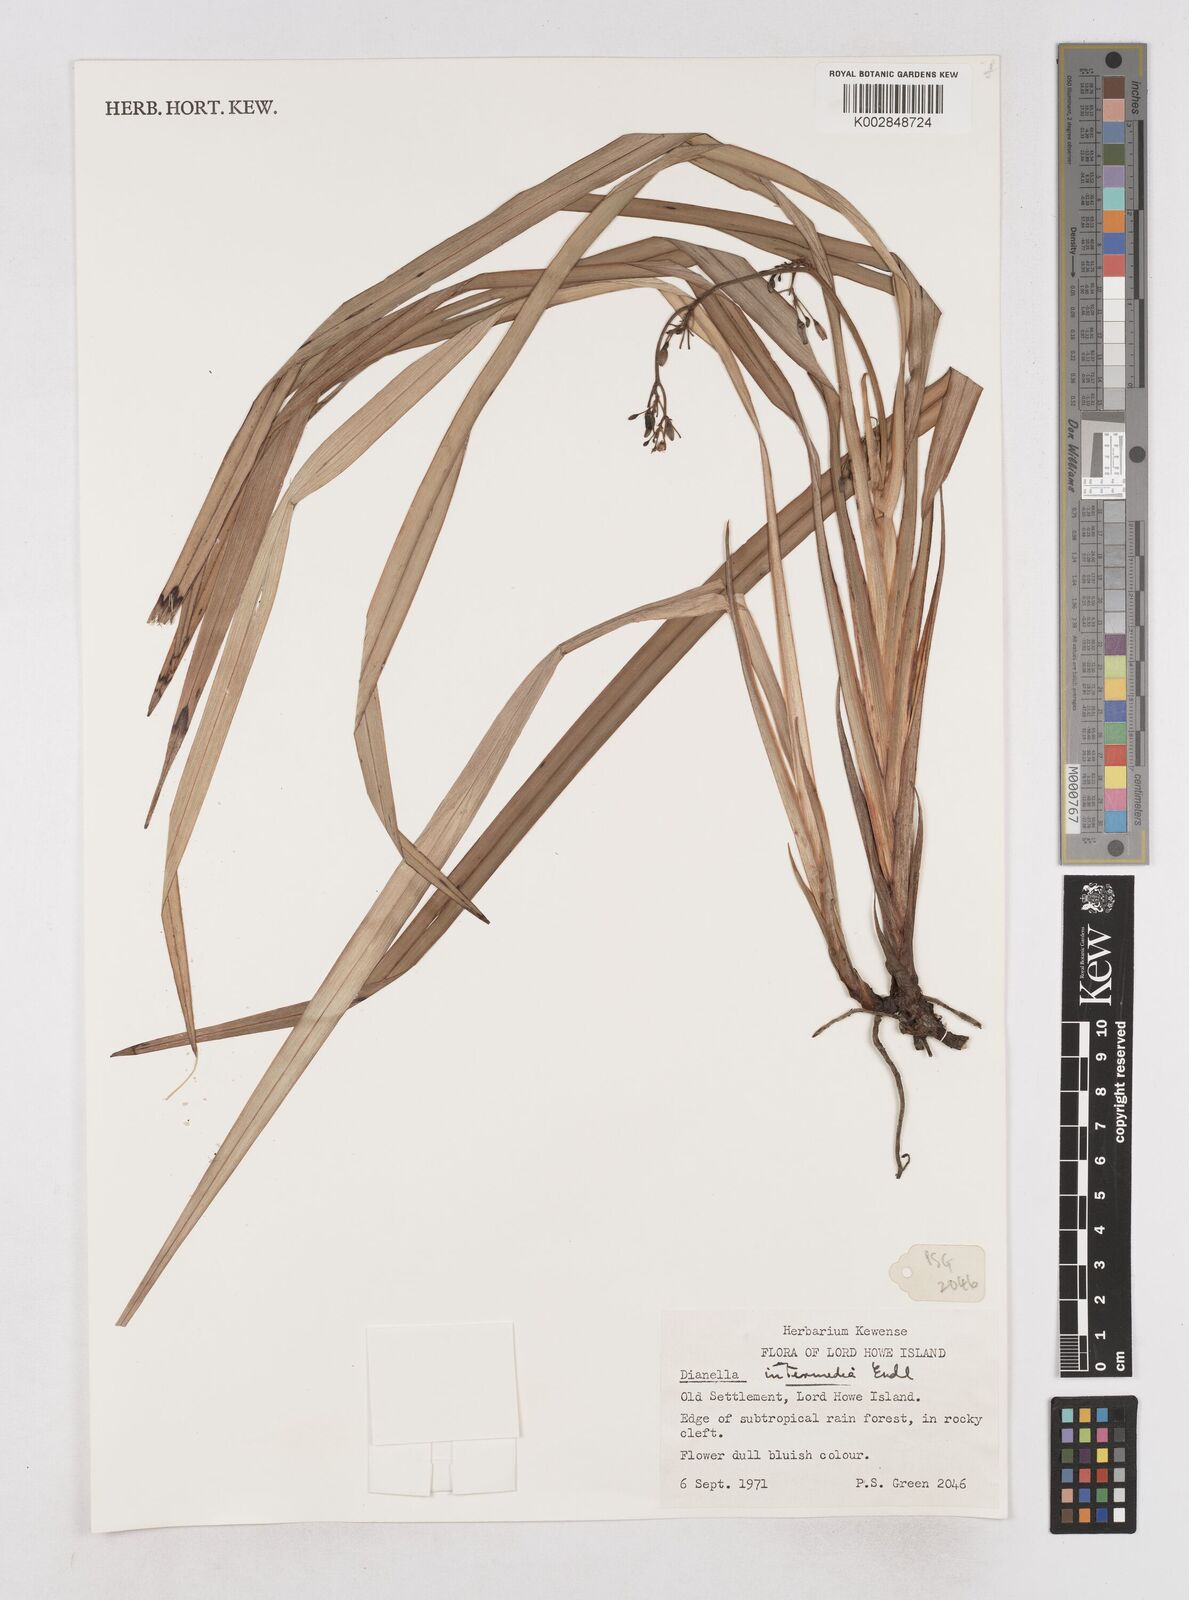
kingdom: Plantae
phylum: Tracheophyta
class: Liliopsida
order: Asparagales
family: Asphodelaceae
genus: Dianella
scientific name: Dianella
